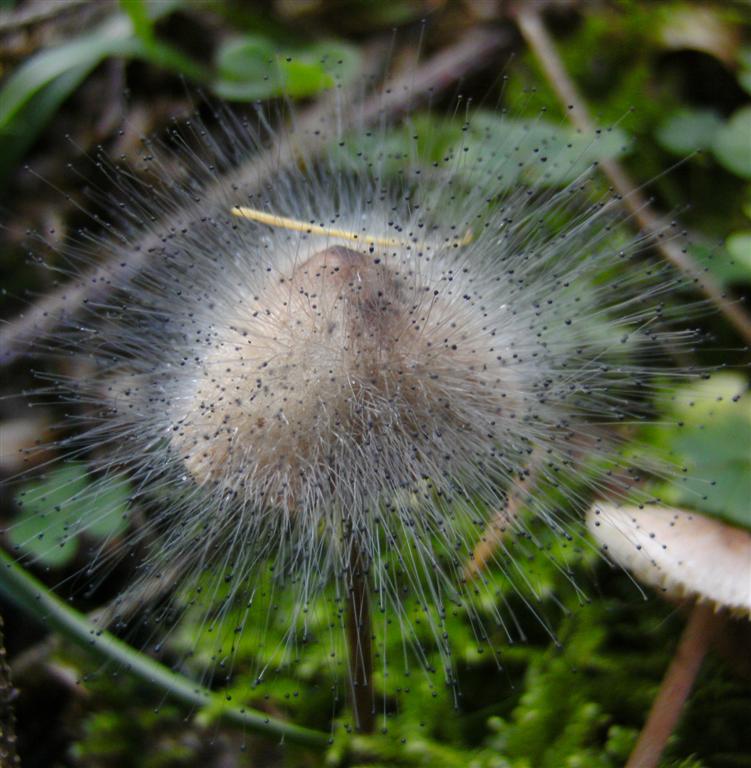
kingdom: Fungi
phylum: Mucoromycota
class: Mucoromycetes
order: Mucorales
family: Phycomycetaceae
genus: Spinellus
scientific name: Spinellus fusiger
